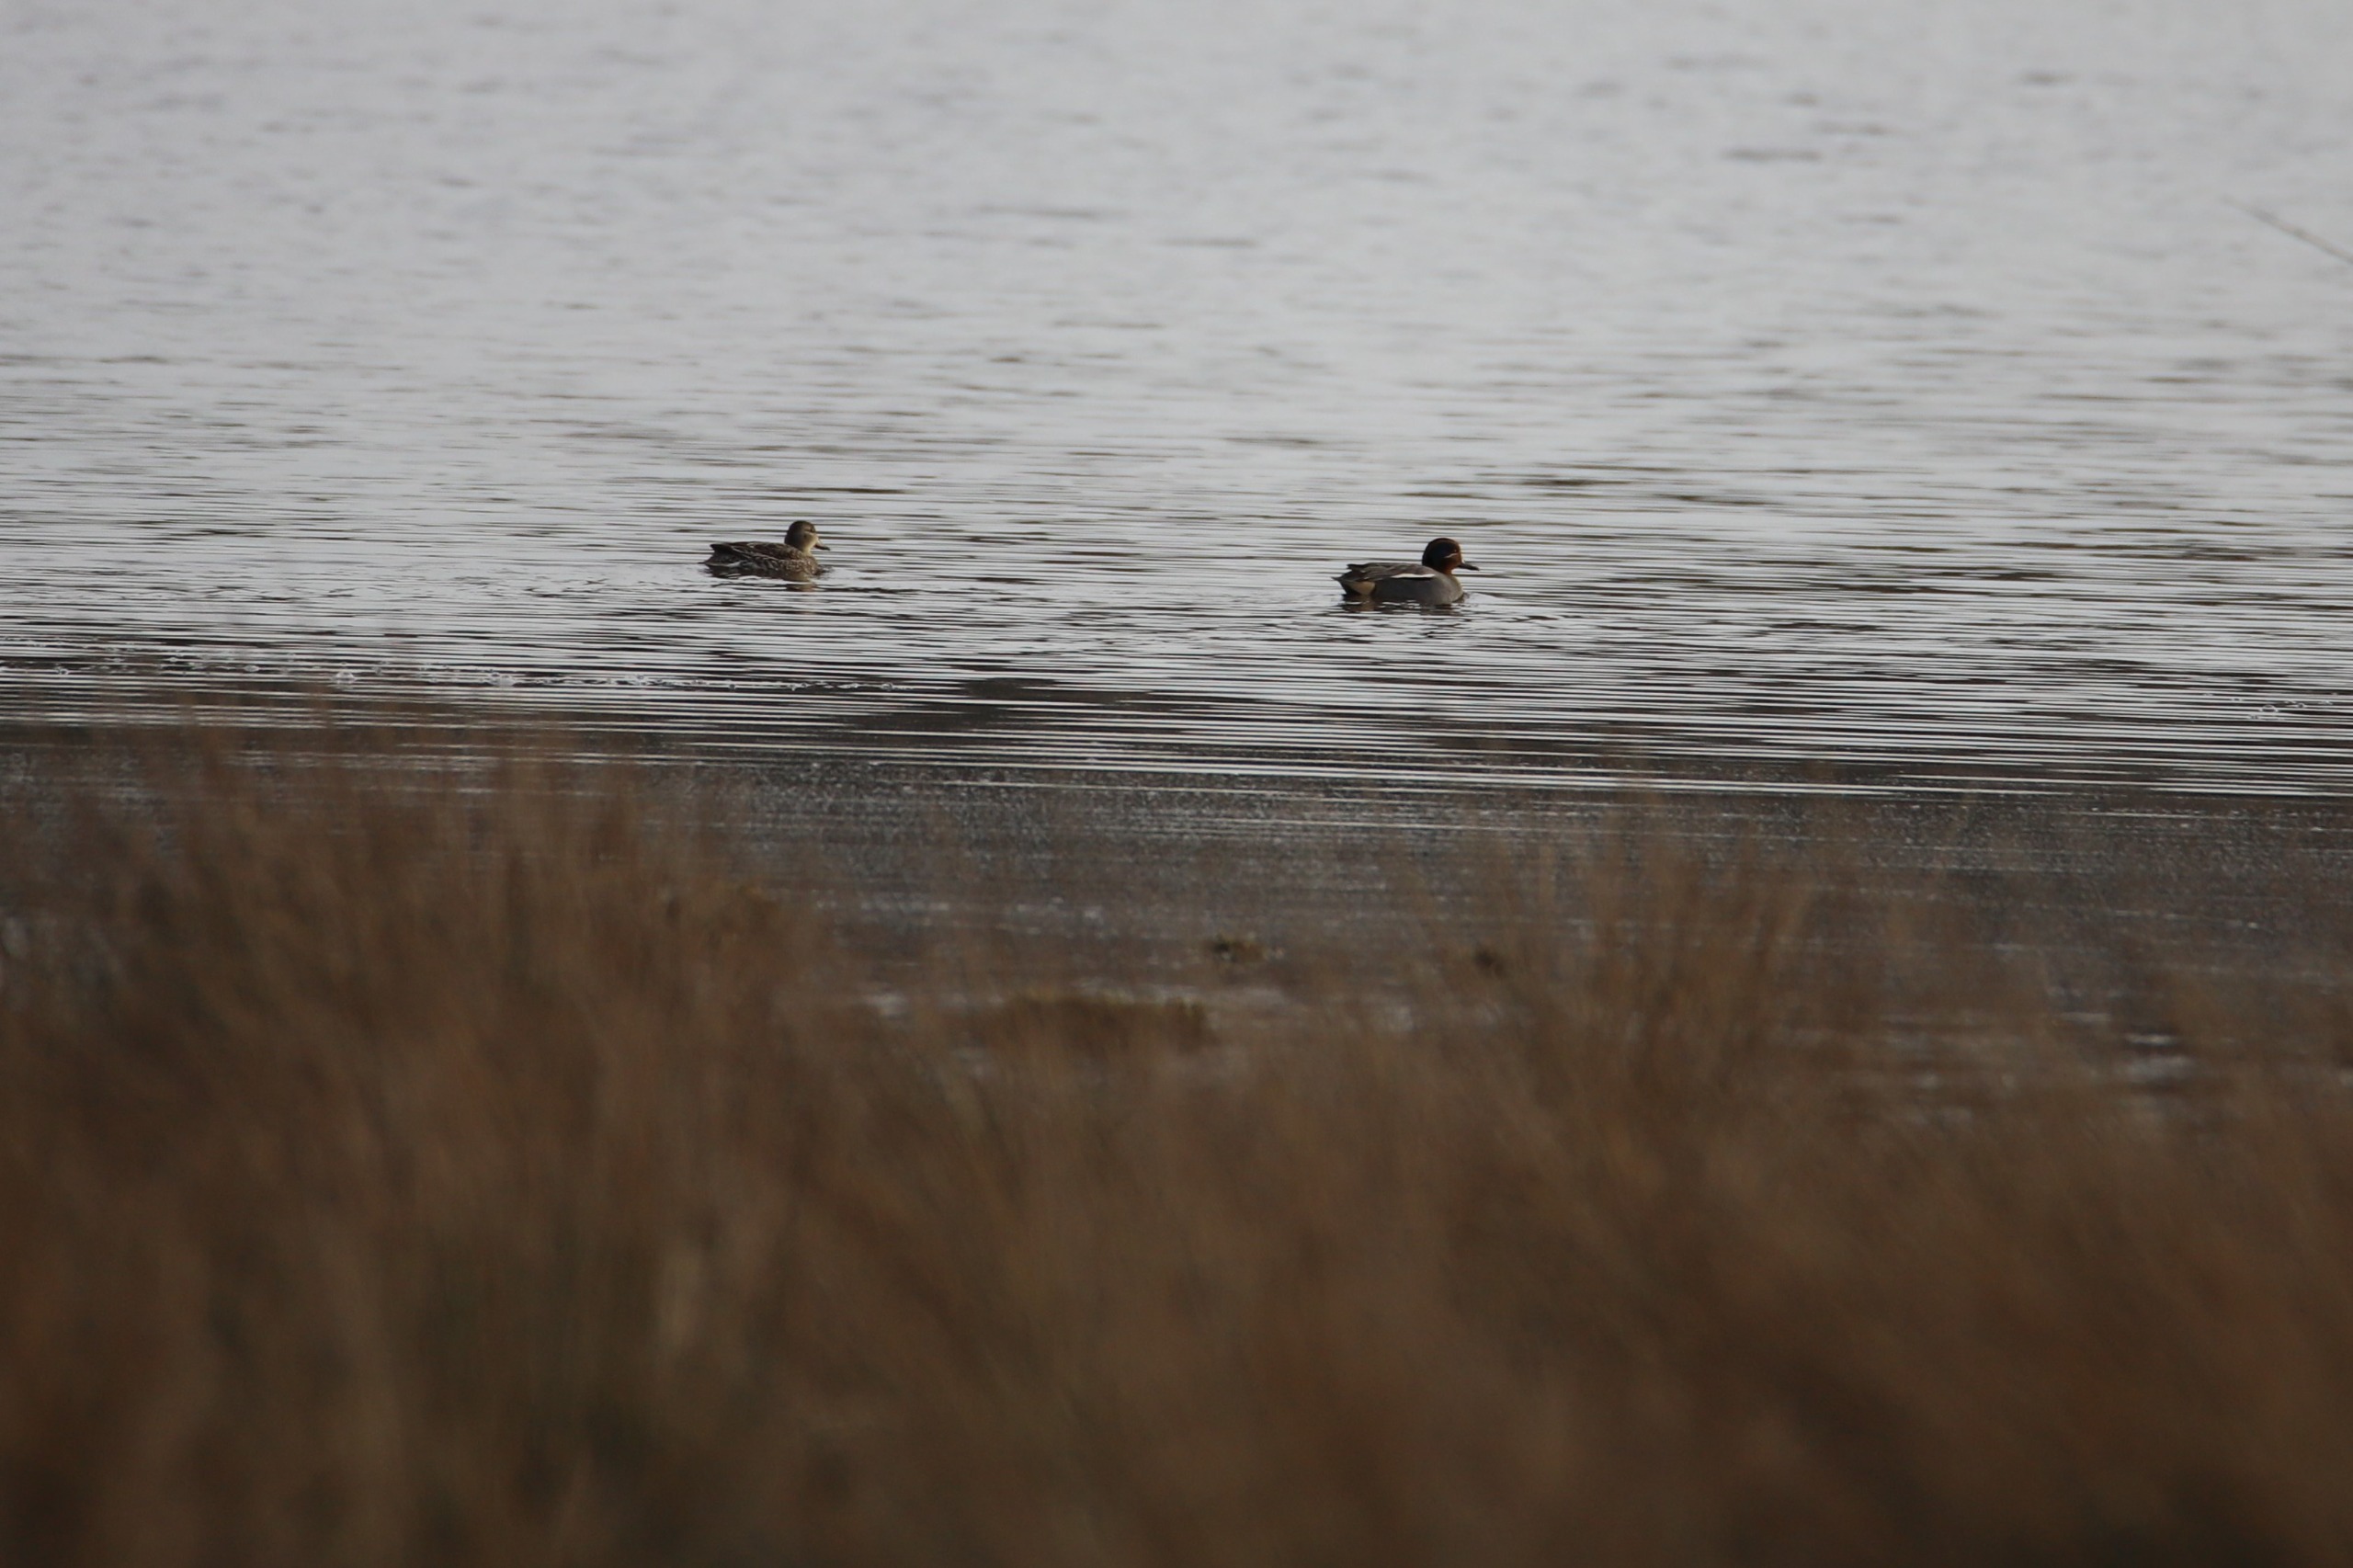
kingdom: Animalia
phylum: Chordata
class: Aves
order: Anseriformes
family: Anatidae
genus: Anas
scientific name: Anas crecca
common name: Krikand
